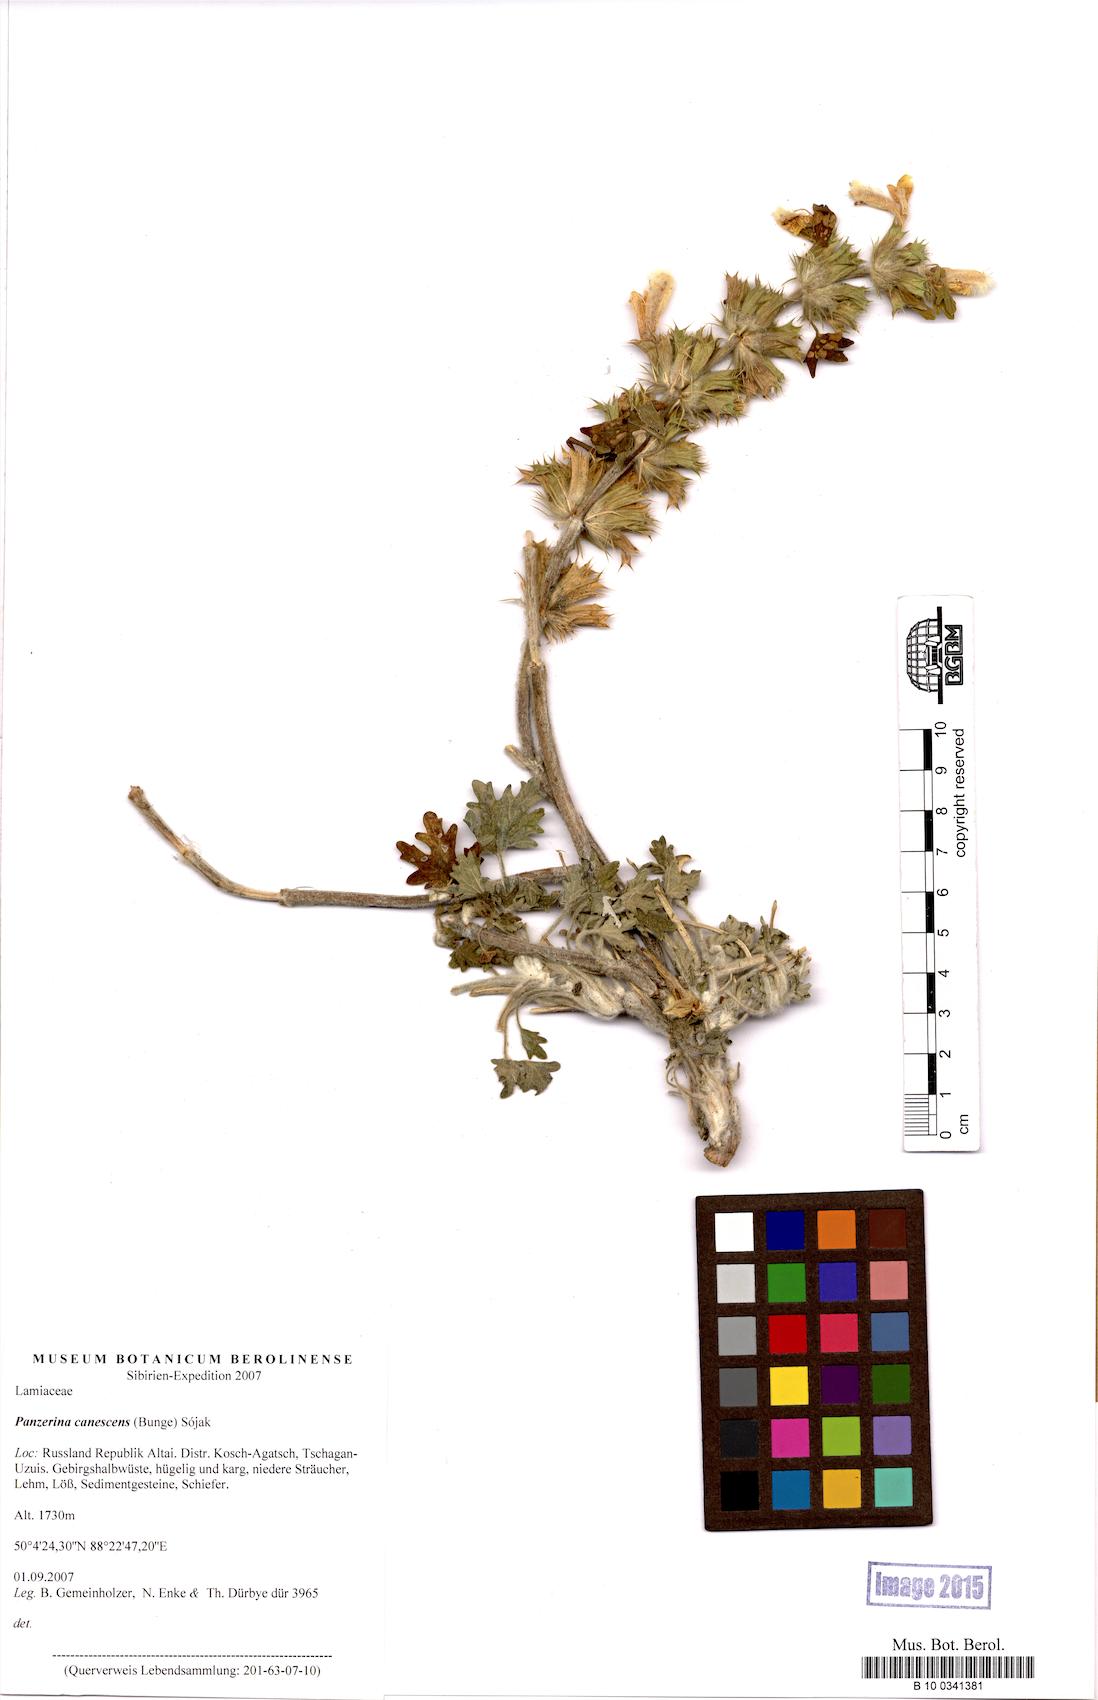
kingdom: Plantae
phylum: Tracheophyta
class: Magnoliopsida
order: Lamiales
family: Lamiaceae
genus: Panzerina
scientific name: Panzerina canescens
